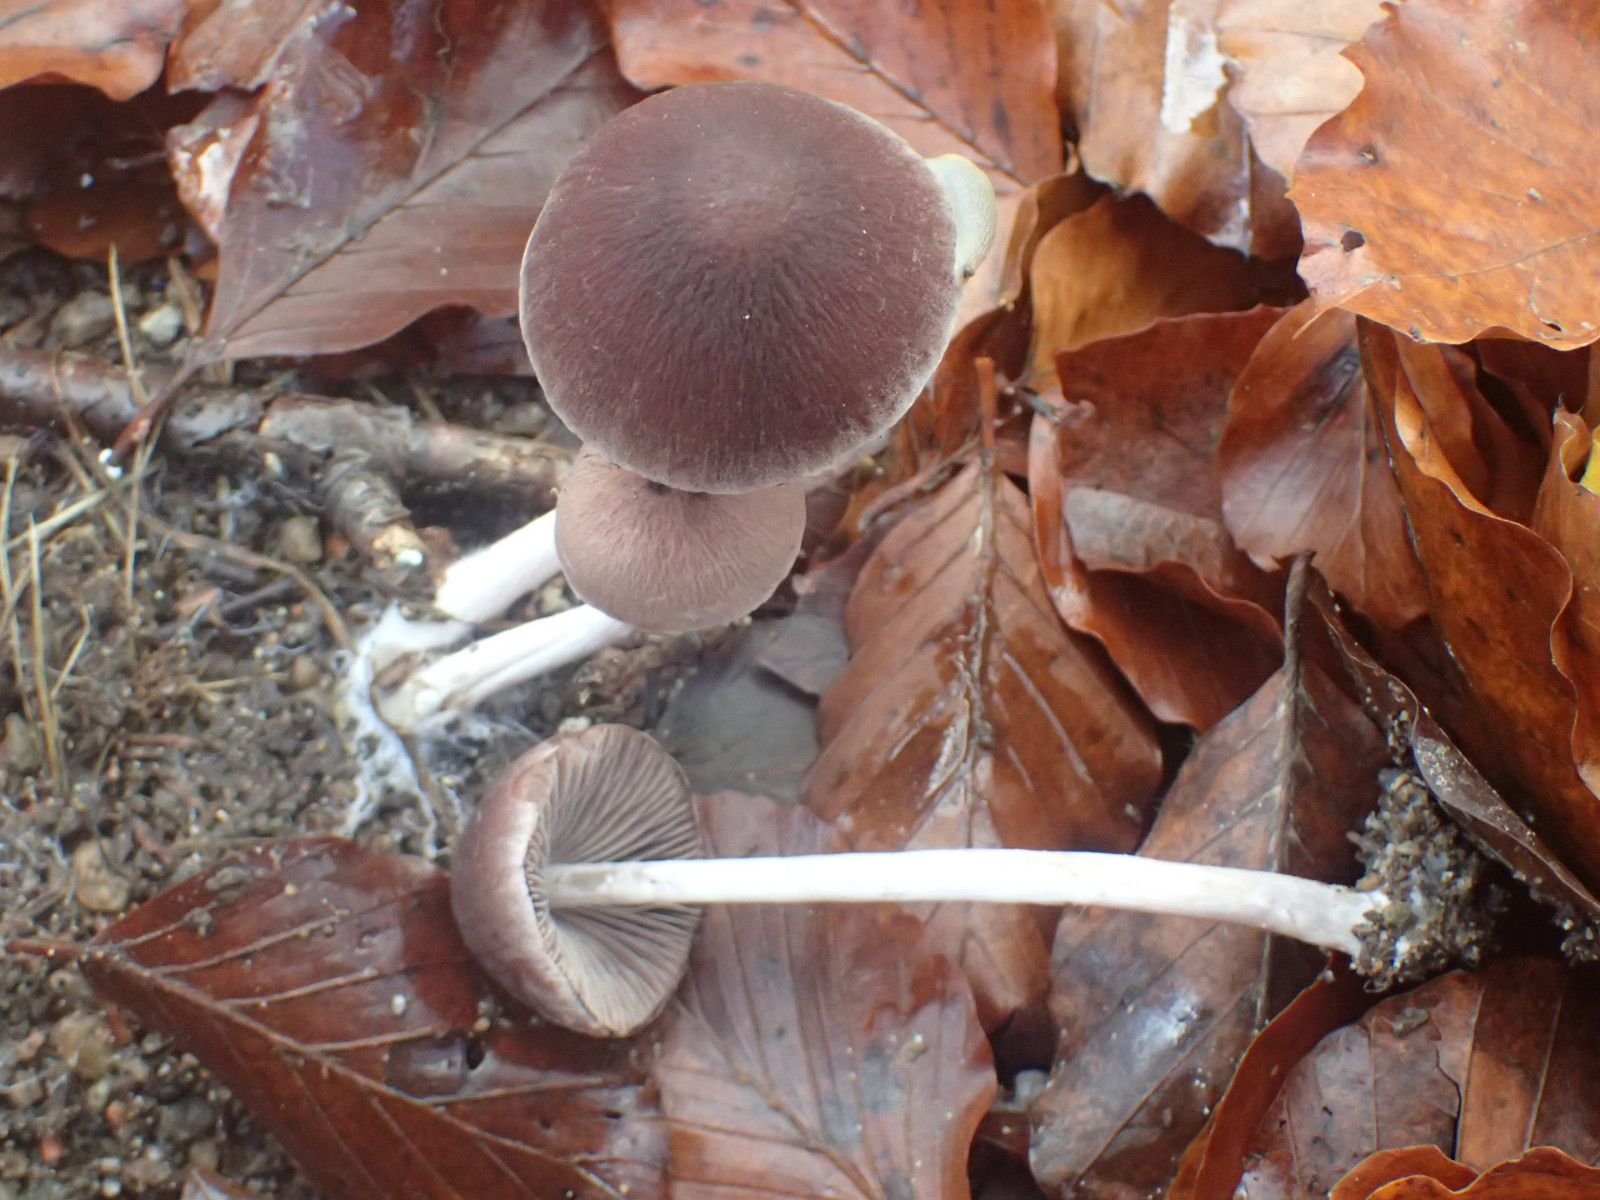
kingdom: Fungi
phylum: Basidiomycota
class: Agaricomycetes
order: Agaricales
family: Psathyrellaceae
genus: Psathyrella
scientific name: Psathyrella bipellis
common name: vinrød mørkhat
